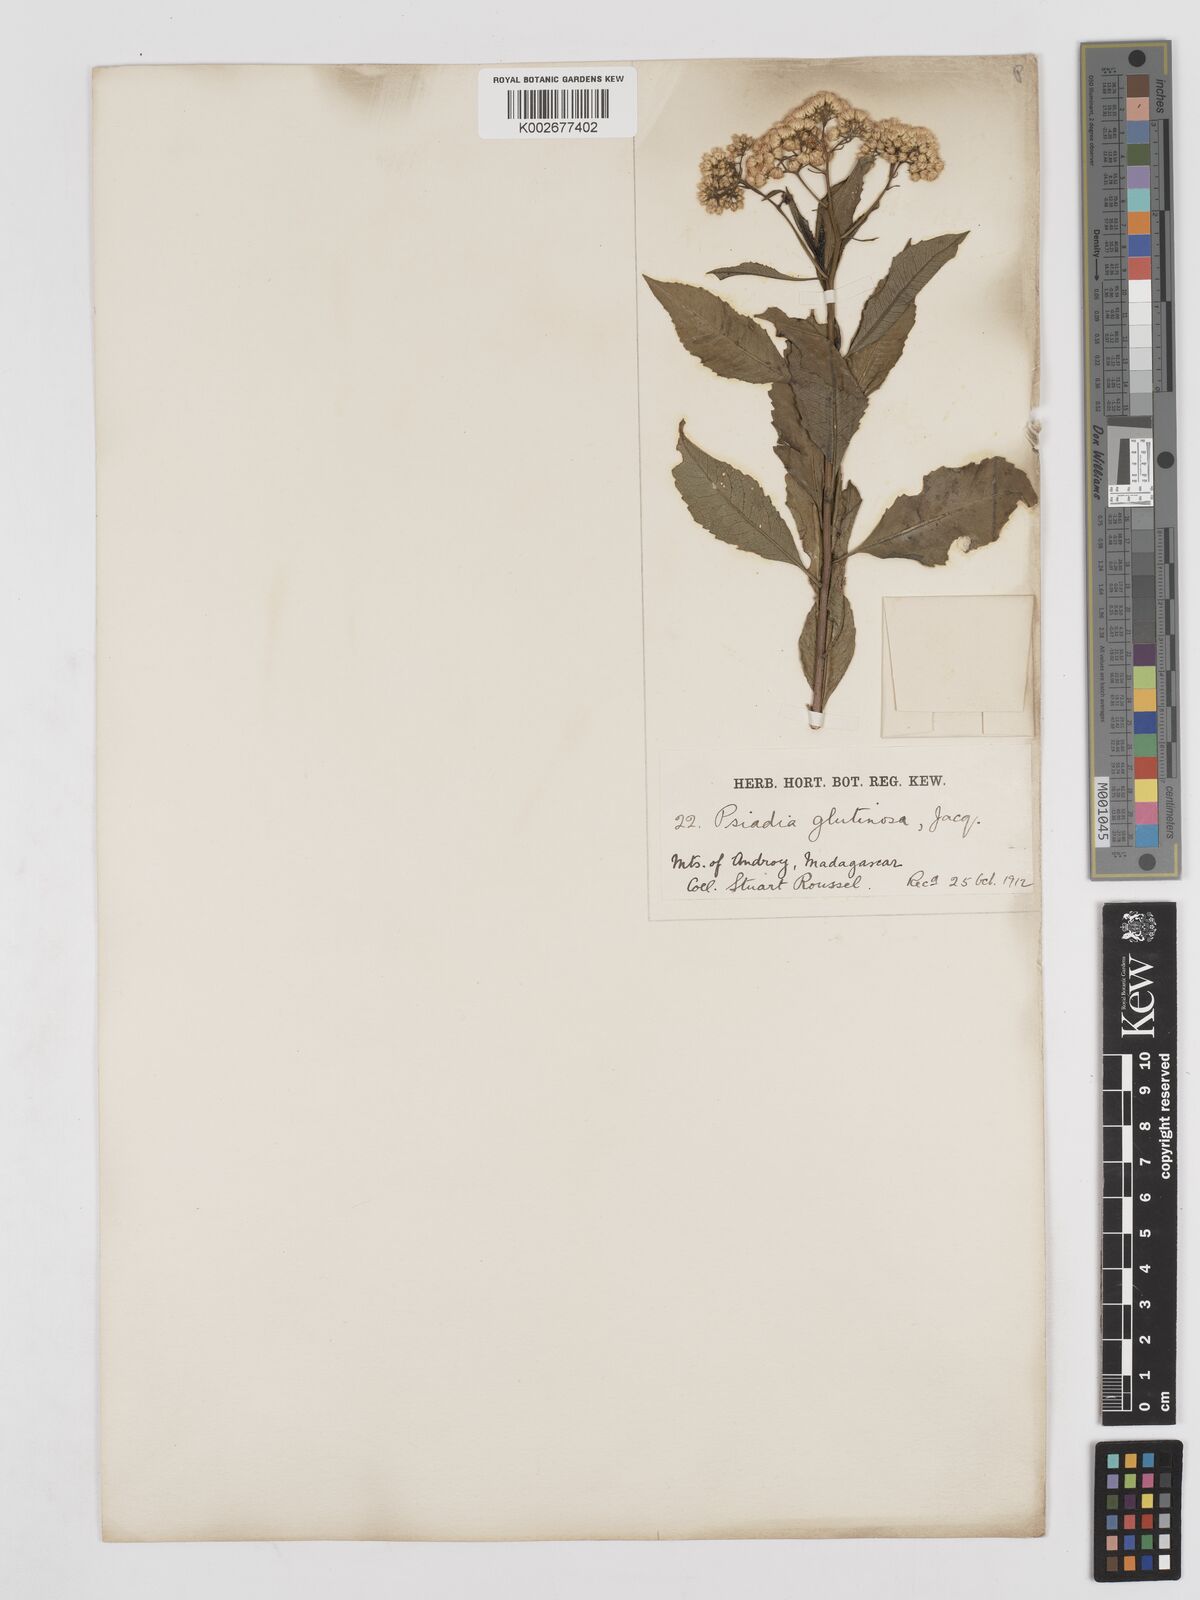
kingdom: Plantae
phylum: Tracheophyta
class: Magnoliopsida
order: Asterales
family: Asteraceae
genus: Psiadia
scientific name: Psiadia glutinosa
